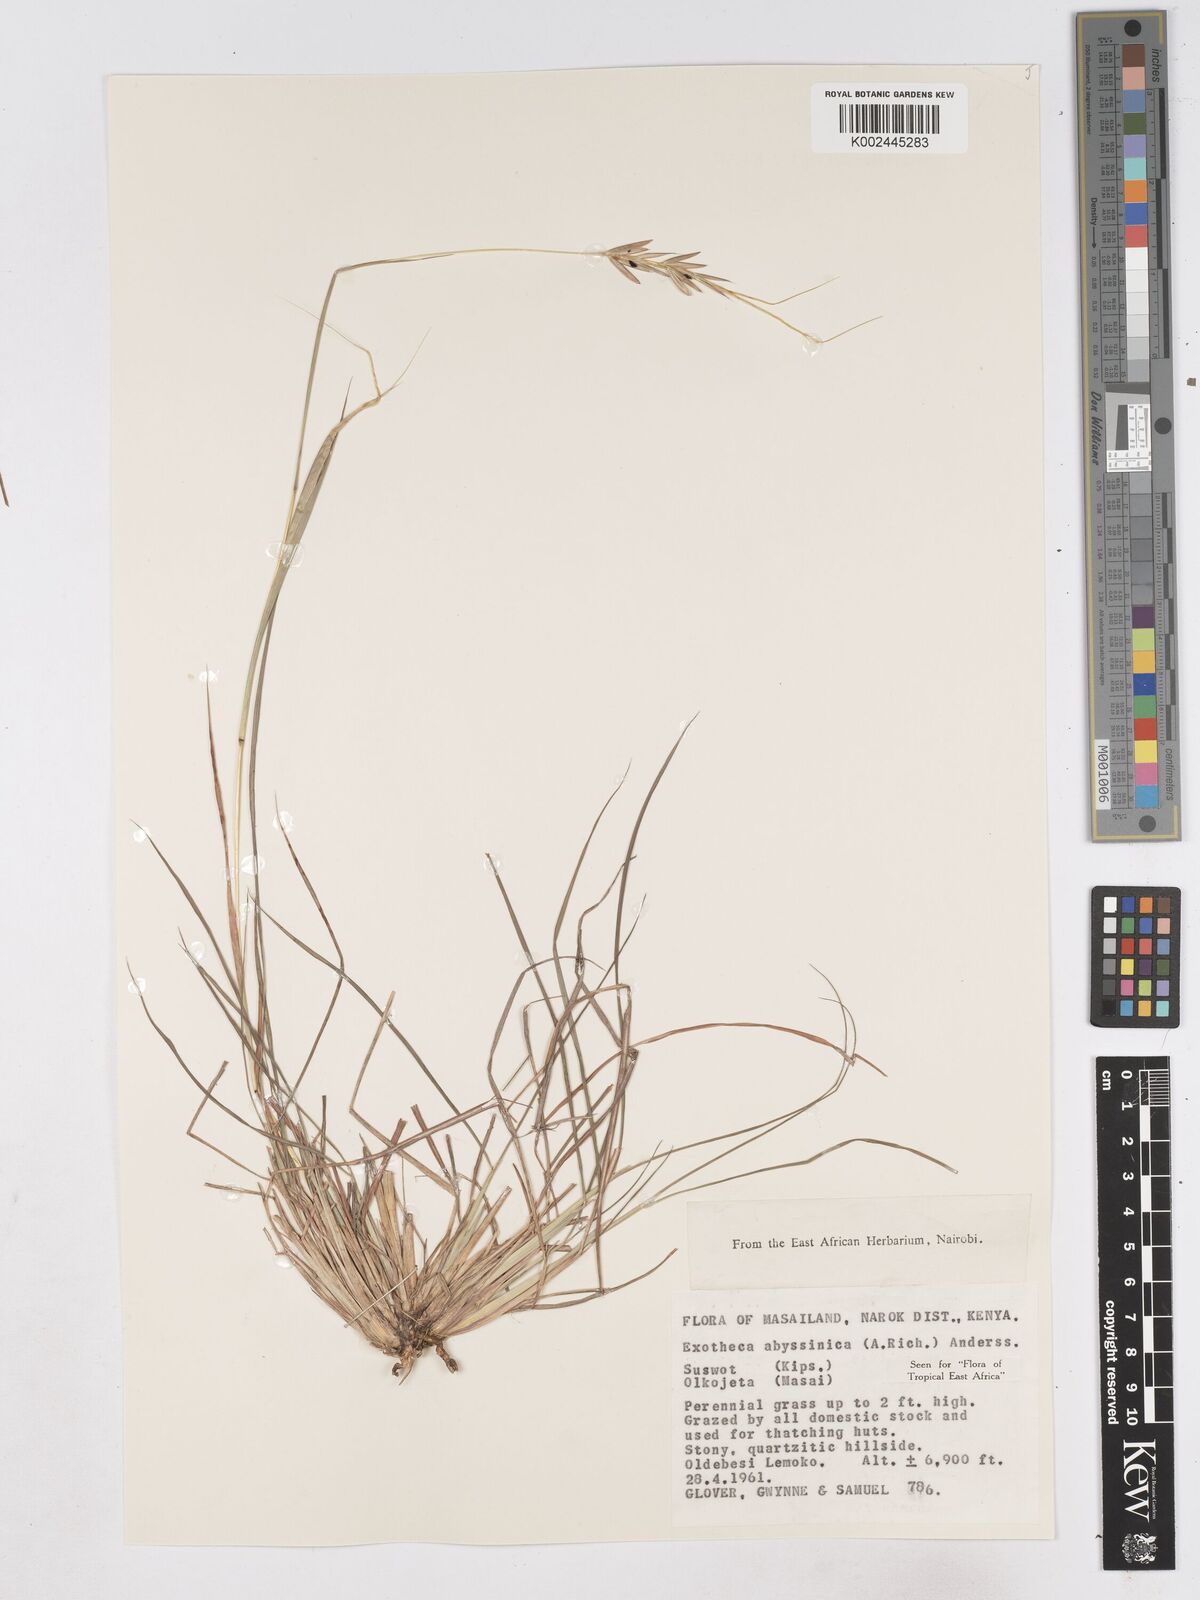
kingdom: Plantae
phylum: Tracheophyta
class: Liliopsida
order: Poales
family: Poaceae
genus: Exotheca
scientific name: Exotheca abyssinica
